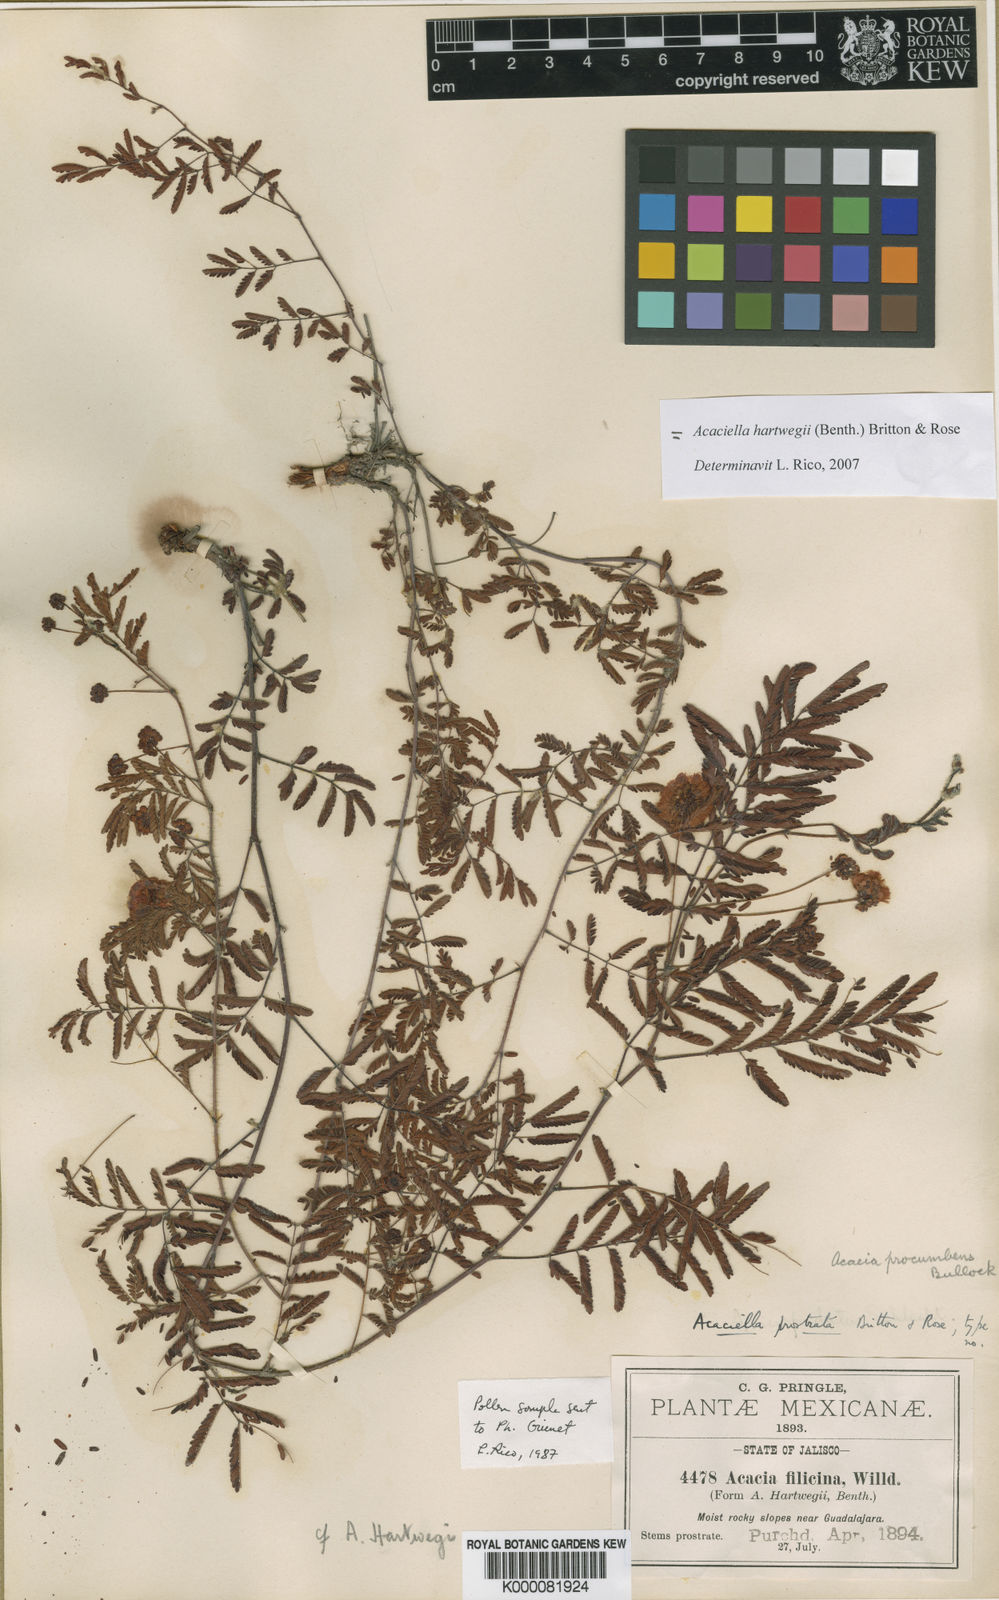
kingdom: Plantae
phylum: Tracheophyta
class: Magnoliopsida
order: Fabales
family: Fabaceae
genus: Acaciella
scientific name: Acaciella hartwegii
